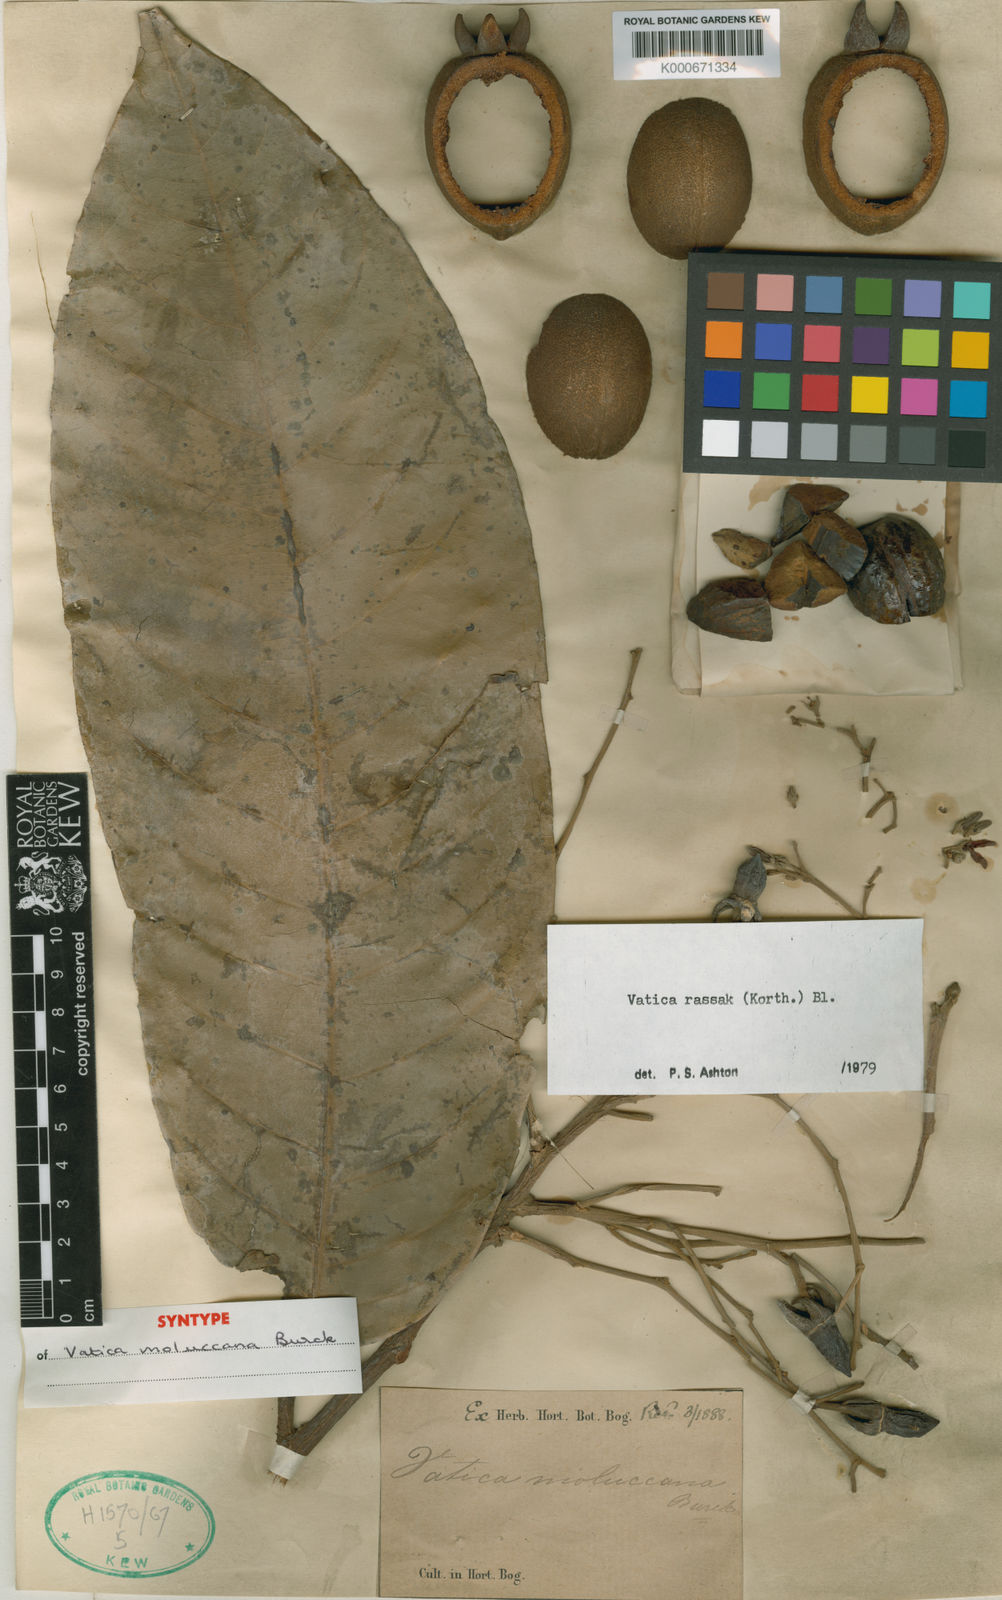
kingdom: Plantae
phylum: Tracheophyta
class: Magnoliopsida
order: Malvales
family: Dipterocarpaceae
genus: Vatica
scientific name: Vatica rassak
